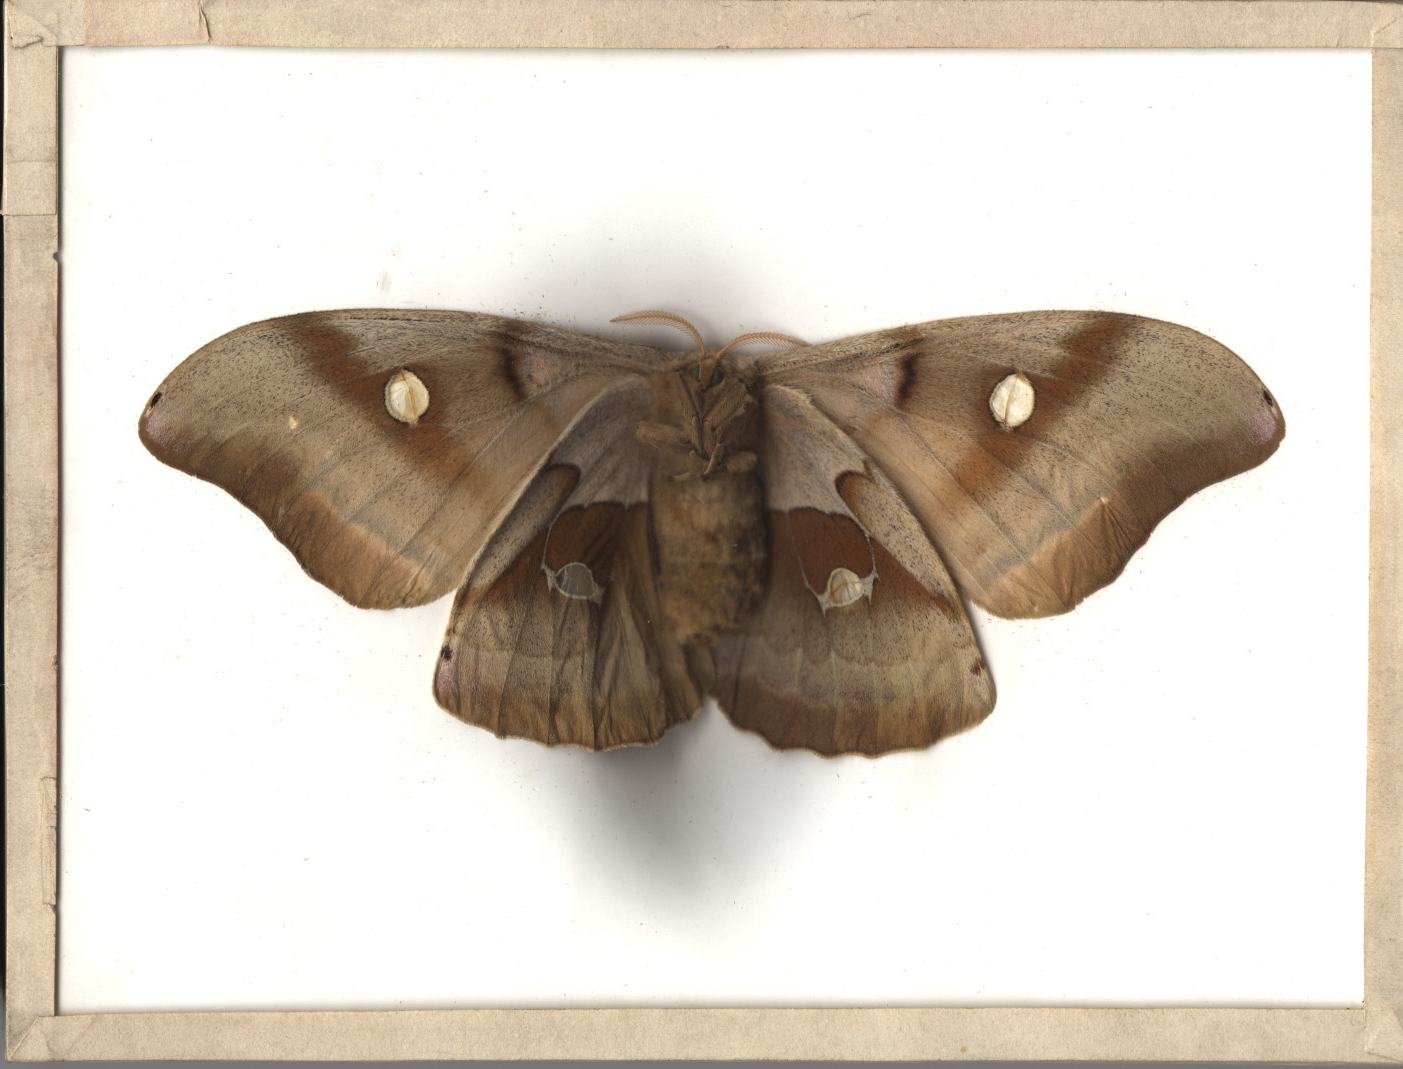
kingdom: Animalia
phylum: Arthropoda
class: Insecta
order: Lepidoptera
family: Saturniidae
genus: Antheraea
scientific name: Antheraea polyphemus
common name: Polyphemus moth
